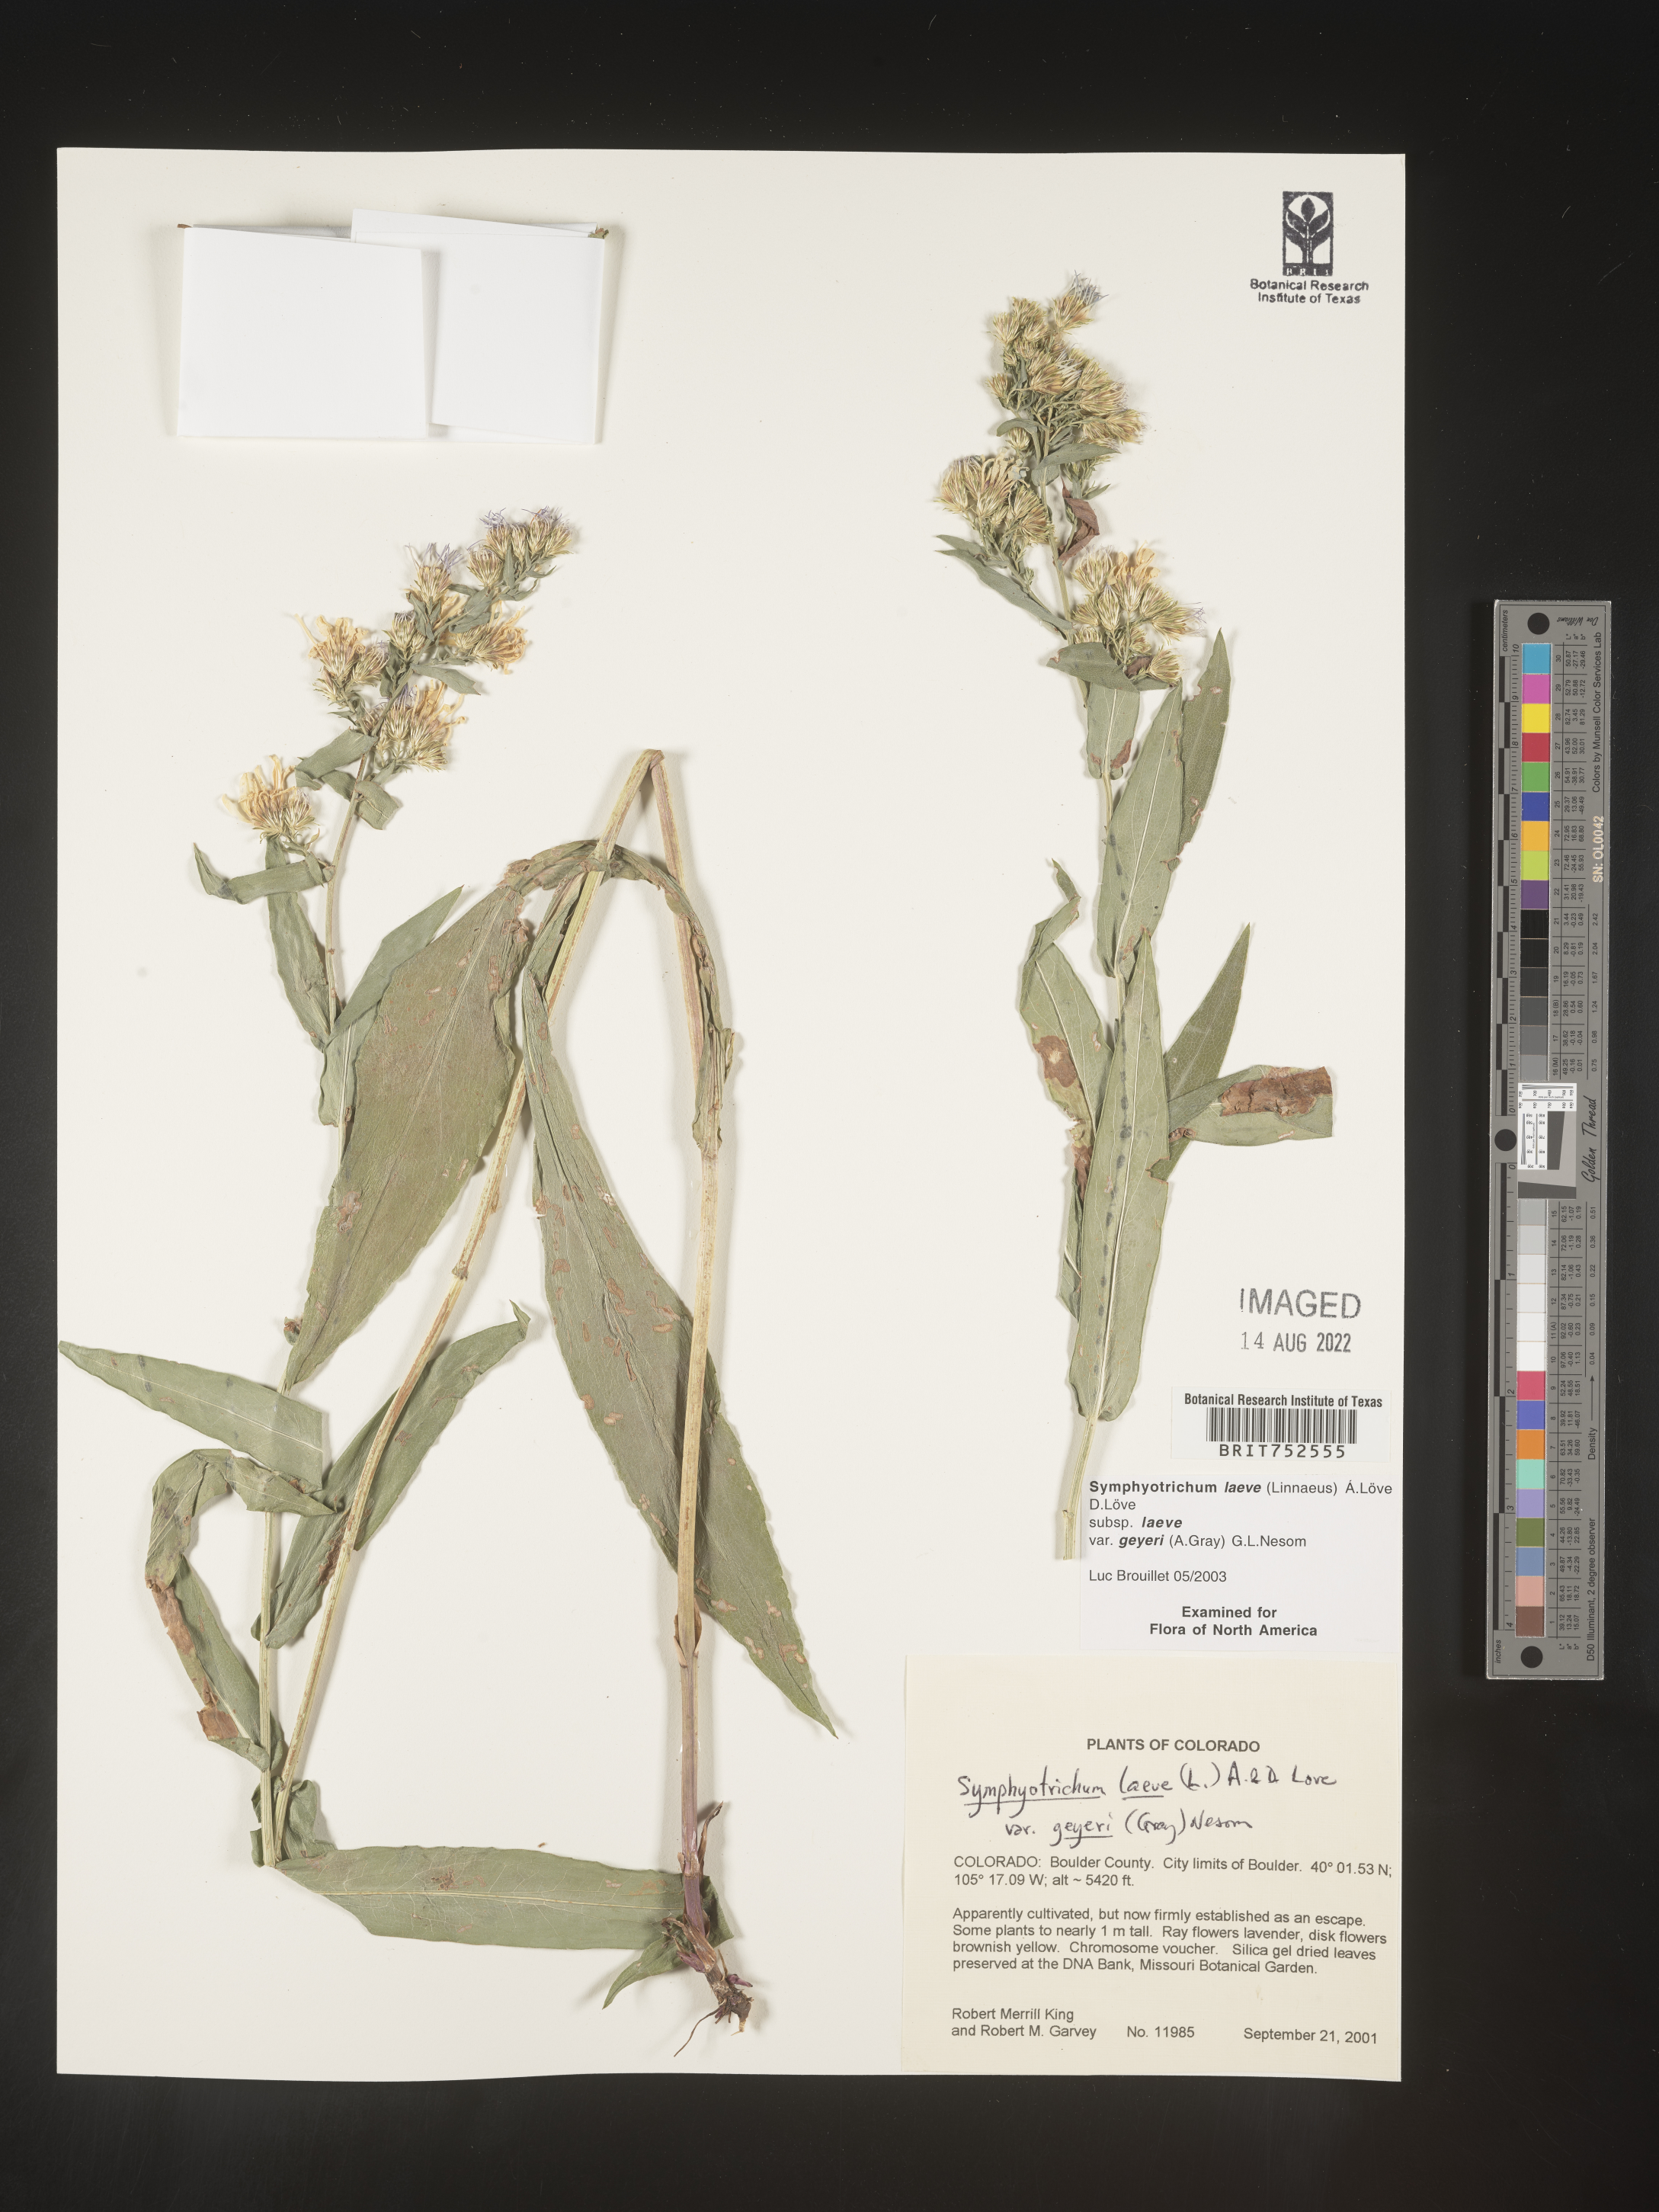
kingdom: Plantae
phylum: Tracheophyta
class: Magnoliopsida
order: Asterales
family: Asteraceae
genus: Symphyotrichum
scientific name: Symphyotrichum laeve
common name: Glaucous aster
